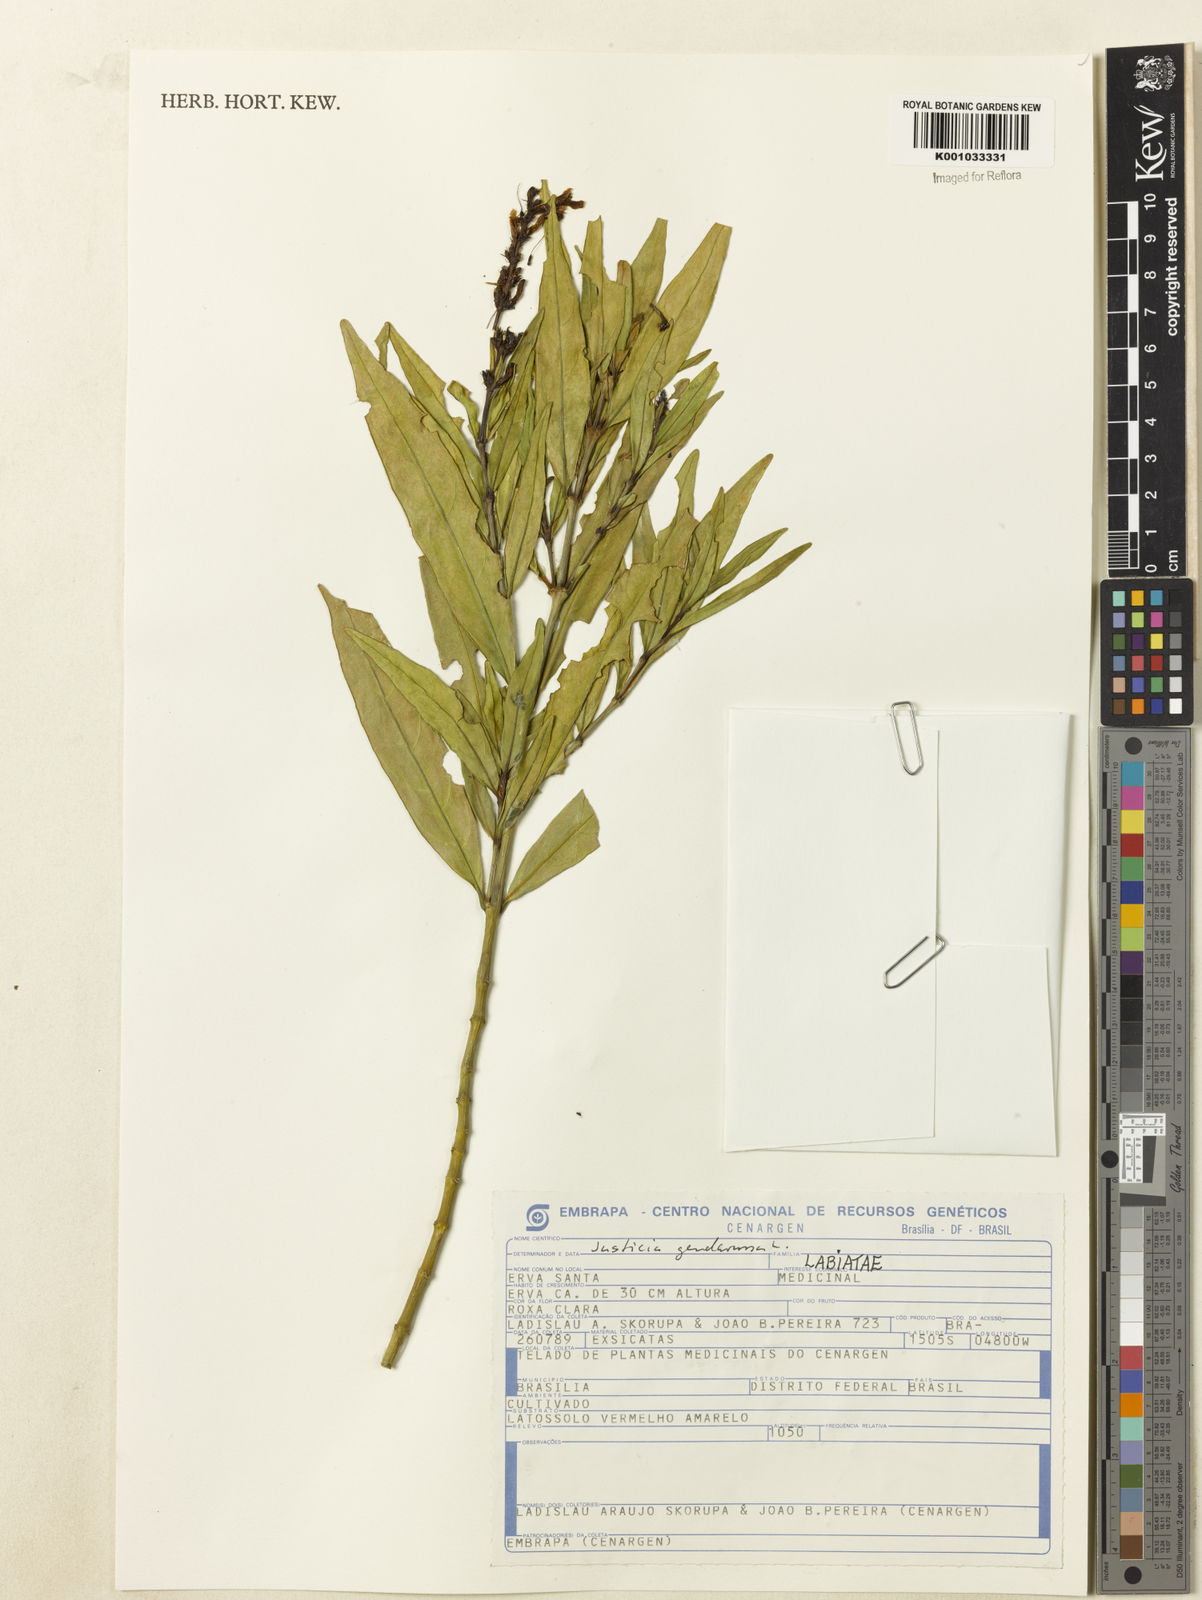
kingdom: Plantae
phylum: Tracheophyta
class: Magnoliopsida
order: Lamiales
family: Acanthaceae
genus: Justicia
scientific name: Justicia gendarussa
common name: Warer willow
